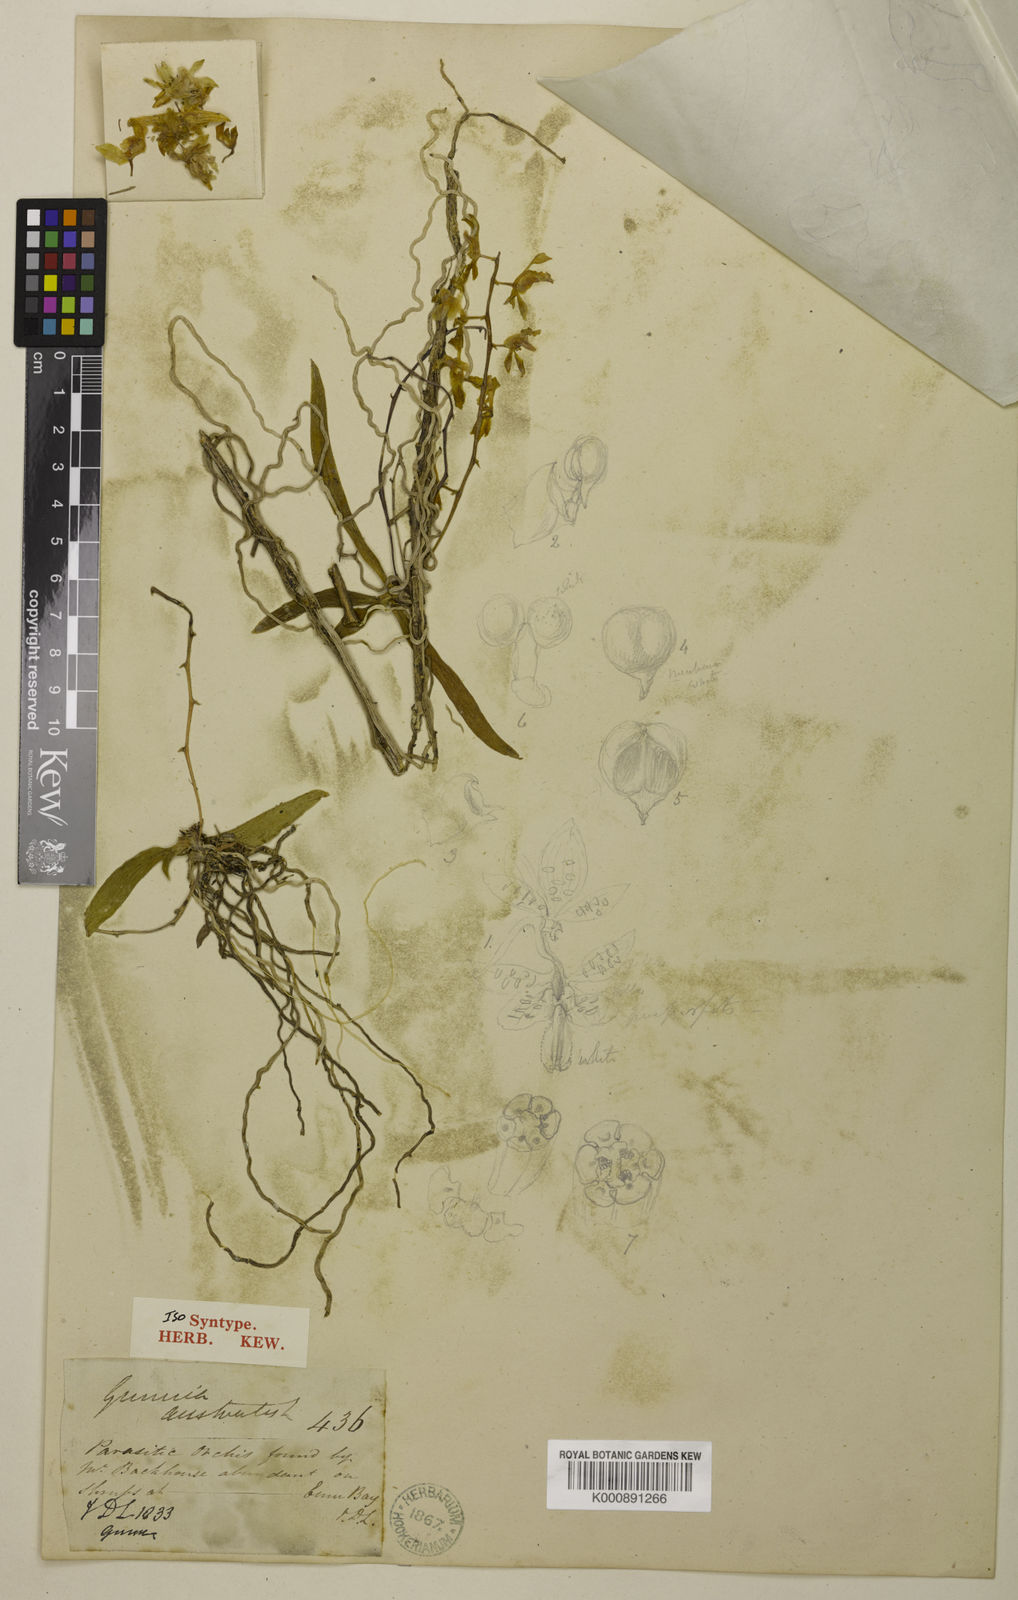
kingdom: Plantae
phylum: Tracheophyta
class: Liliopsida
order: Asparagales
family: Orchidaceae
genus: Sarcochilus
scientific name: Sarcochilus australis
